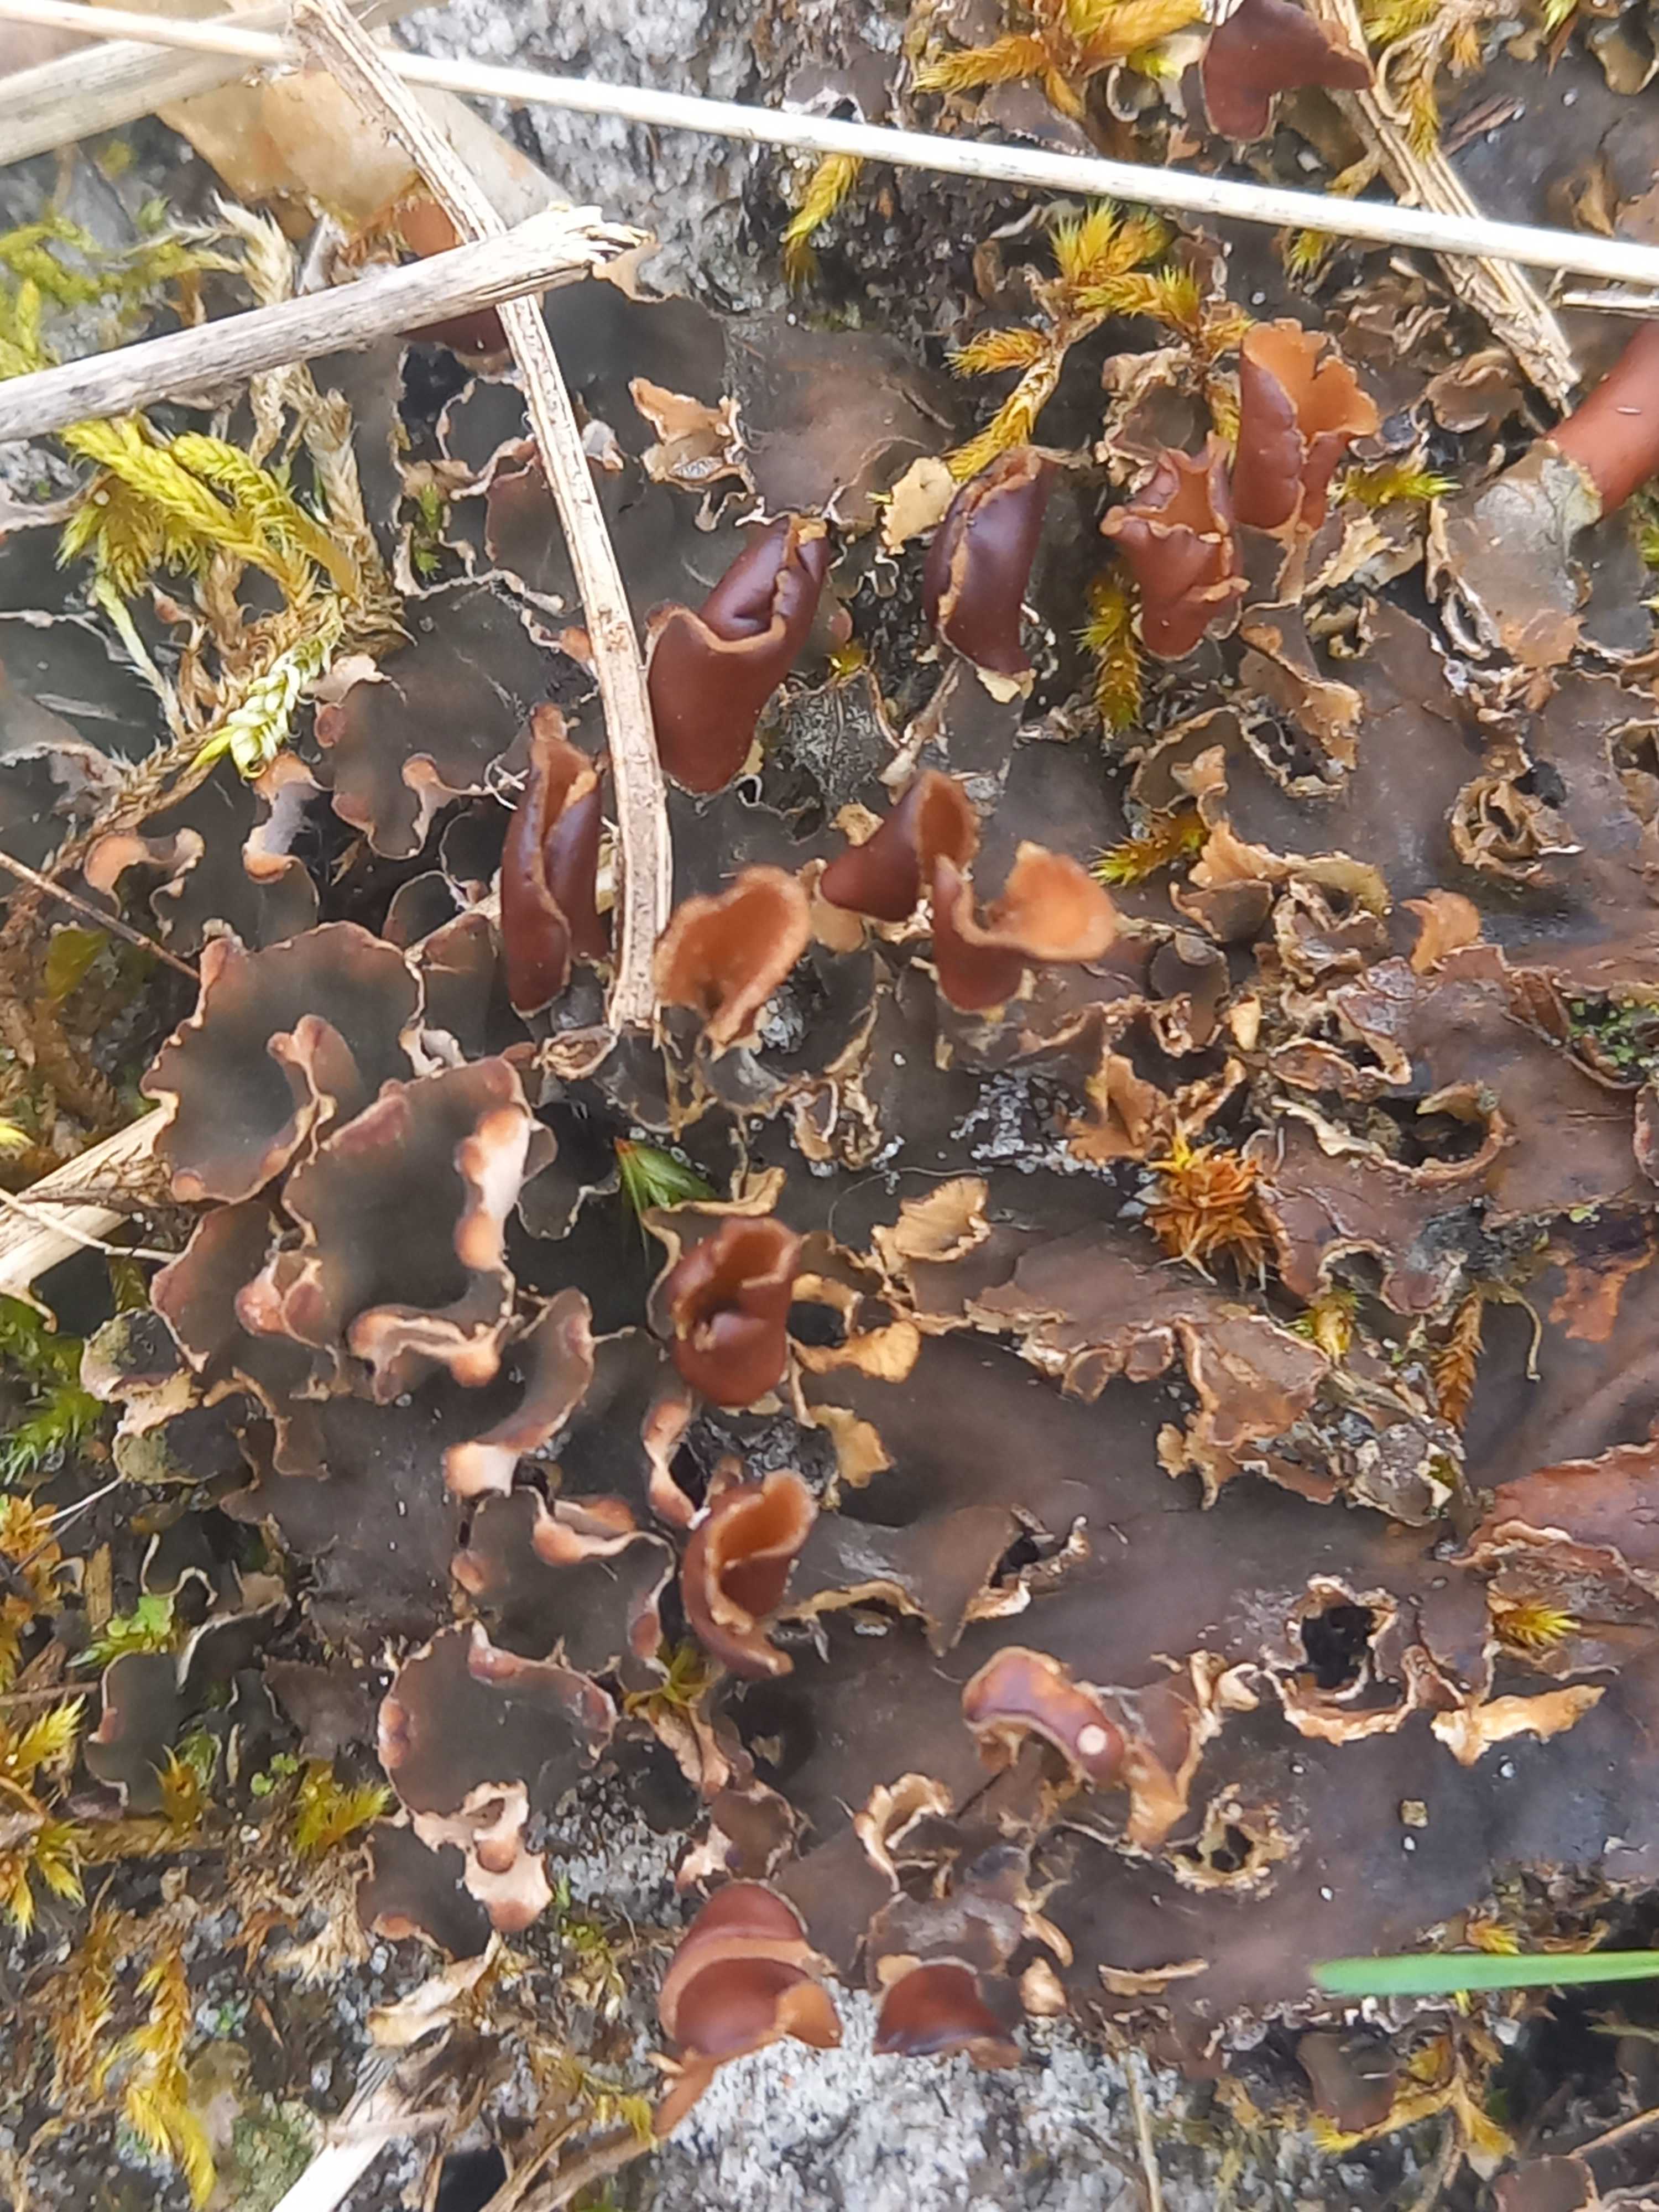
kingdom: Fungi
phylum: Ascomycota
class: Lecanoromycetes
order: Peltigerales
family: Peltigeraceae
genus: Peltigera
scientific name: Peltigera
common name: skjoldlav
